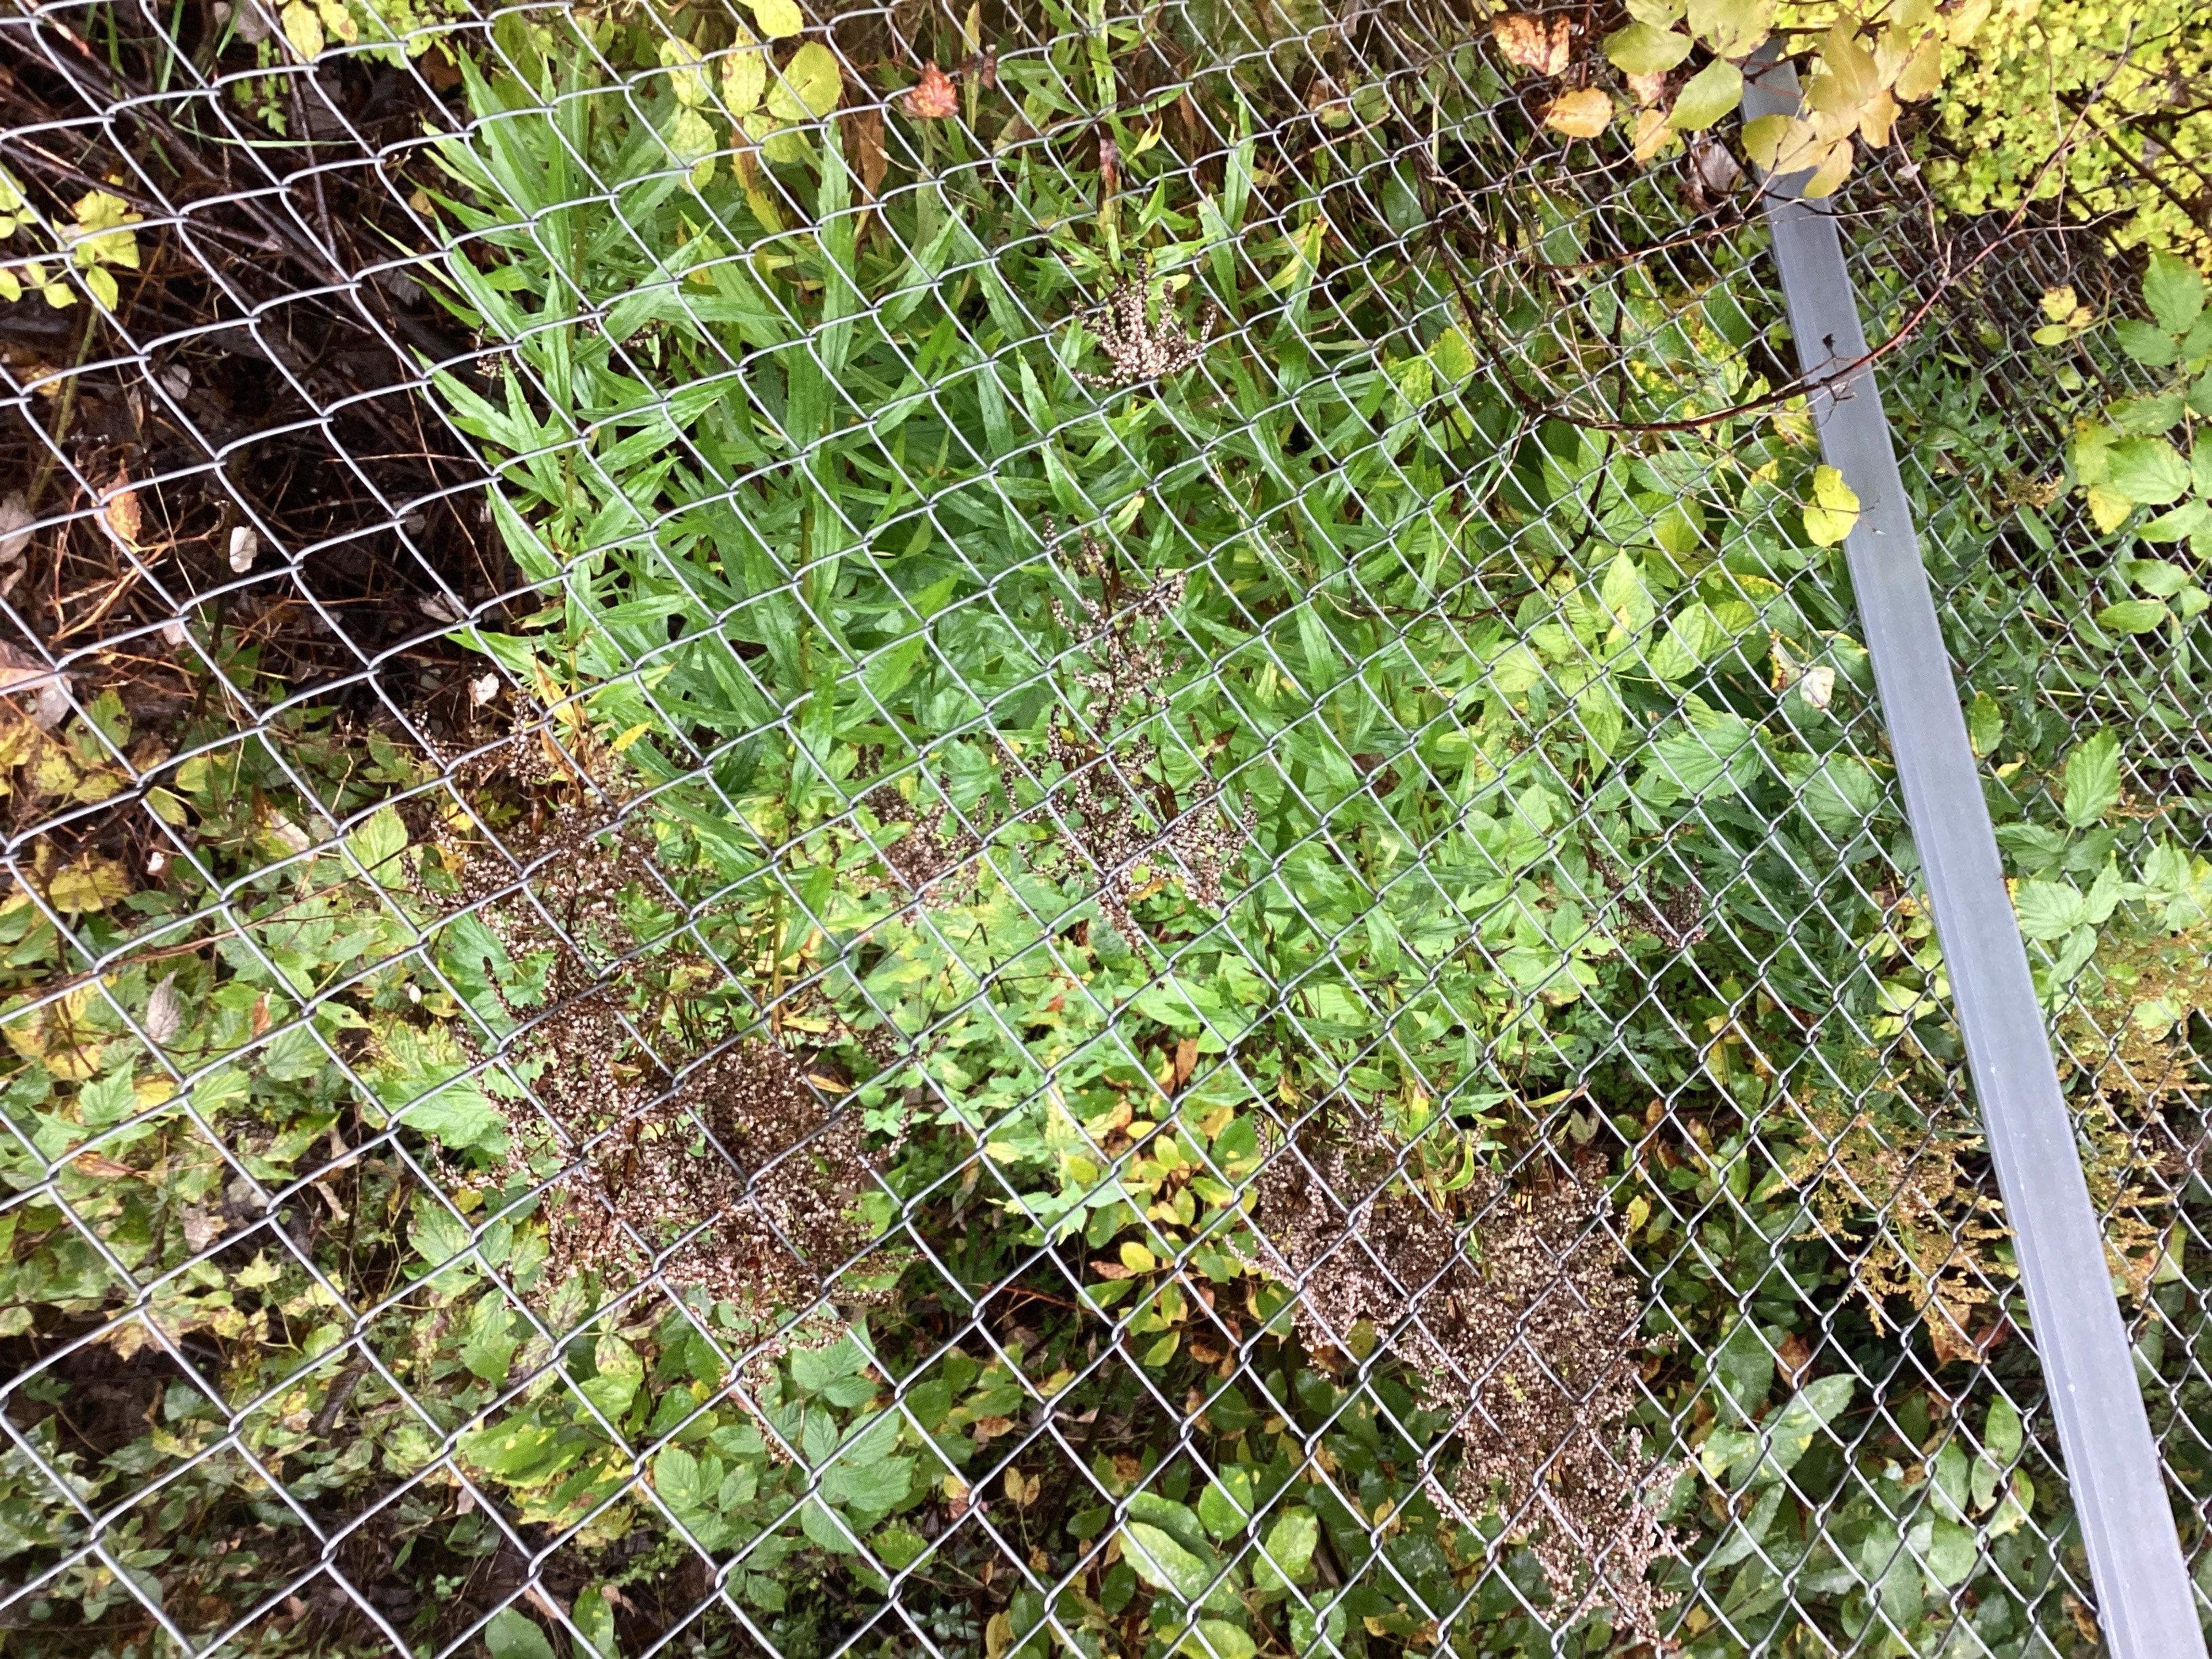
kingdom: Plantae
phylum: Tracheophyta
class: Magnoliopsida
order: Asterales
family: Asteraceae
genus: Solidago
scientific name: Solidago canadensis
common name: kanadagullris
